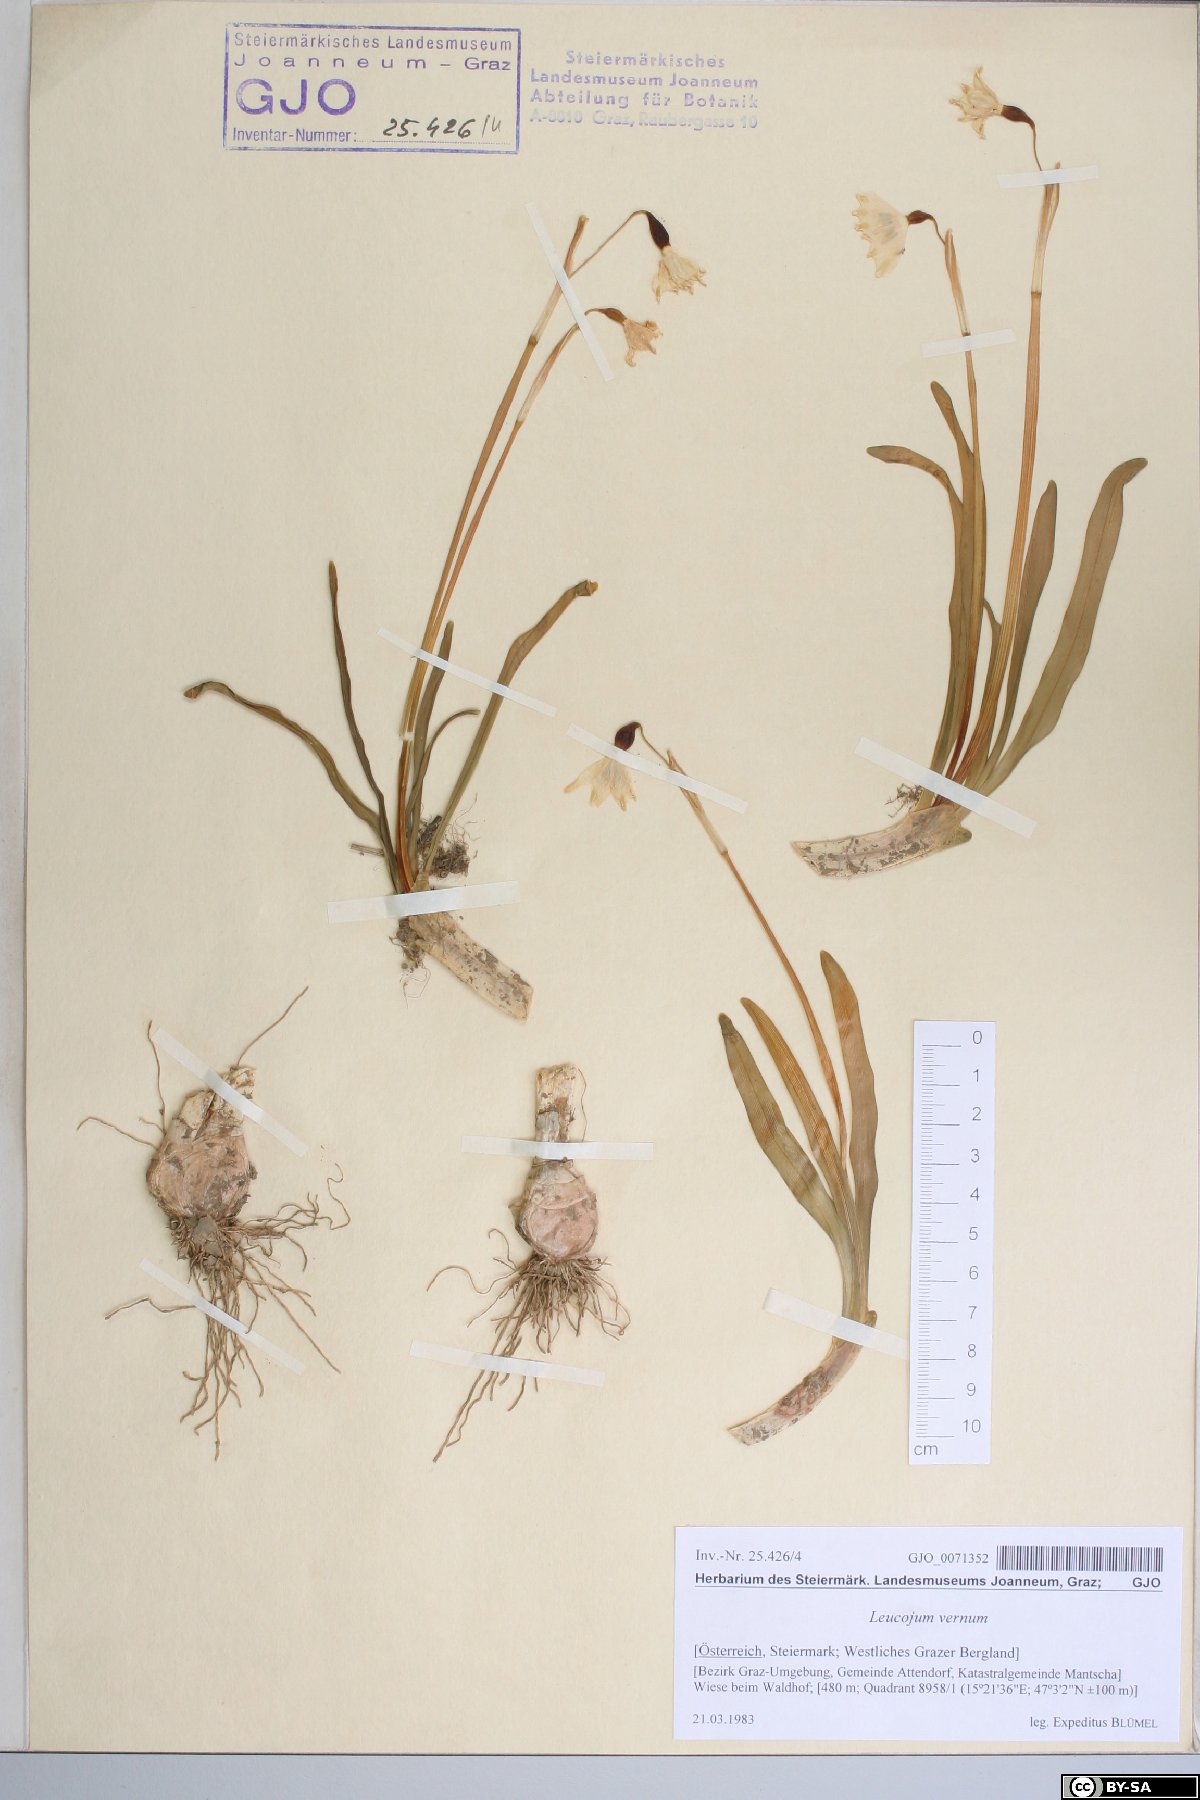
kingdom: Plantae
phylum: Tracheophyta
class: Liliopsida
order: Asparagales
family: Amaryllidaceae
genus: Leucojum
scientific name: Leucojum vernum
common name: Spring snowflake
